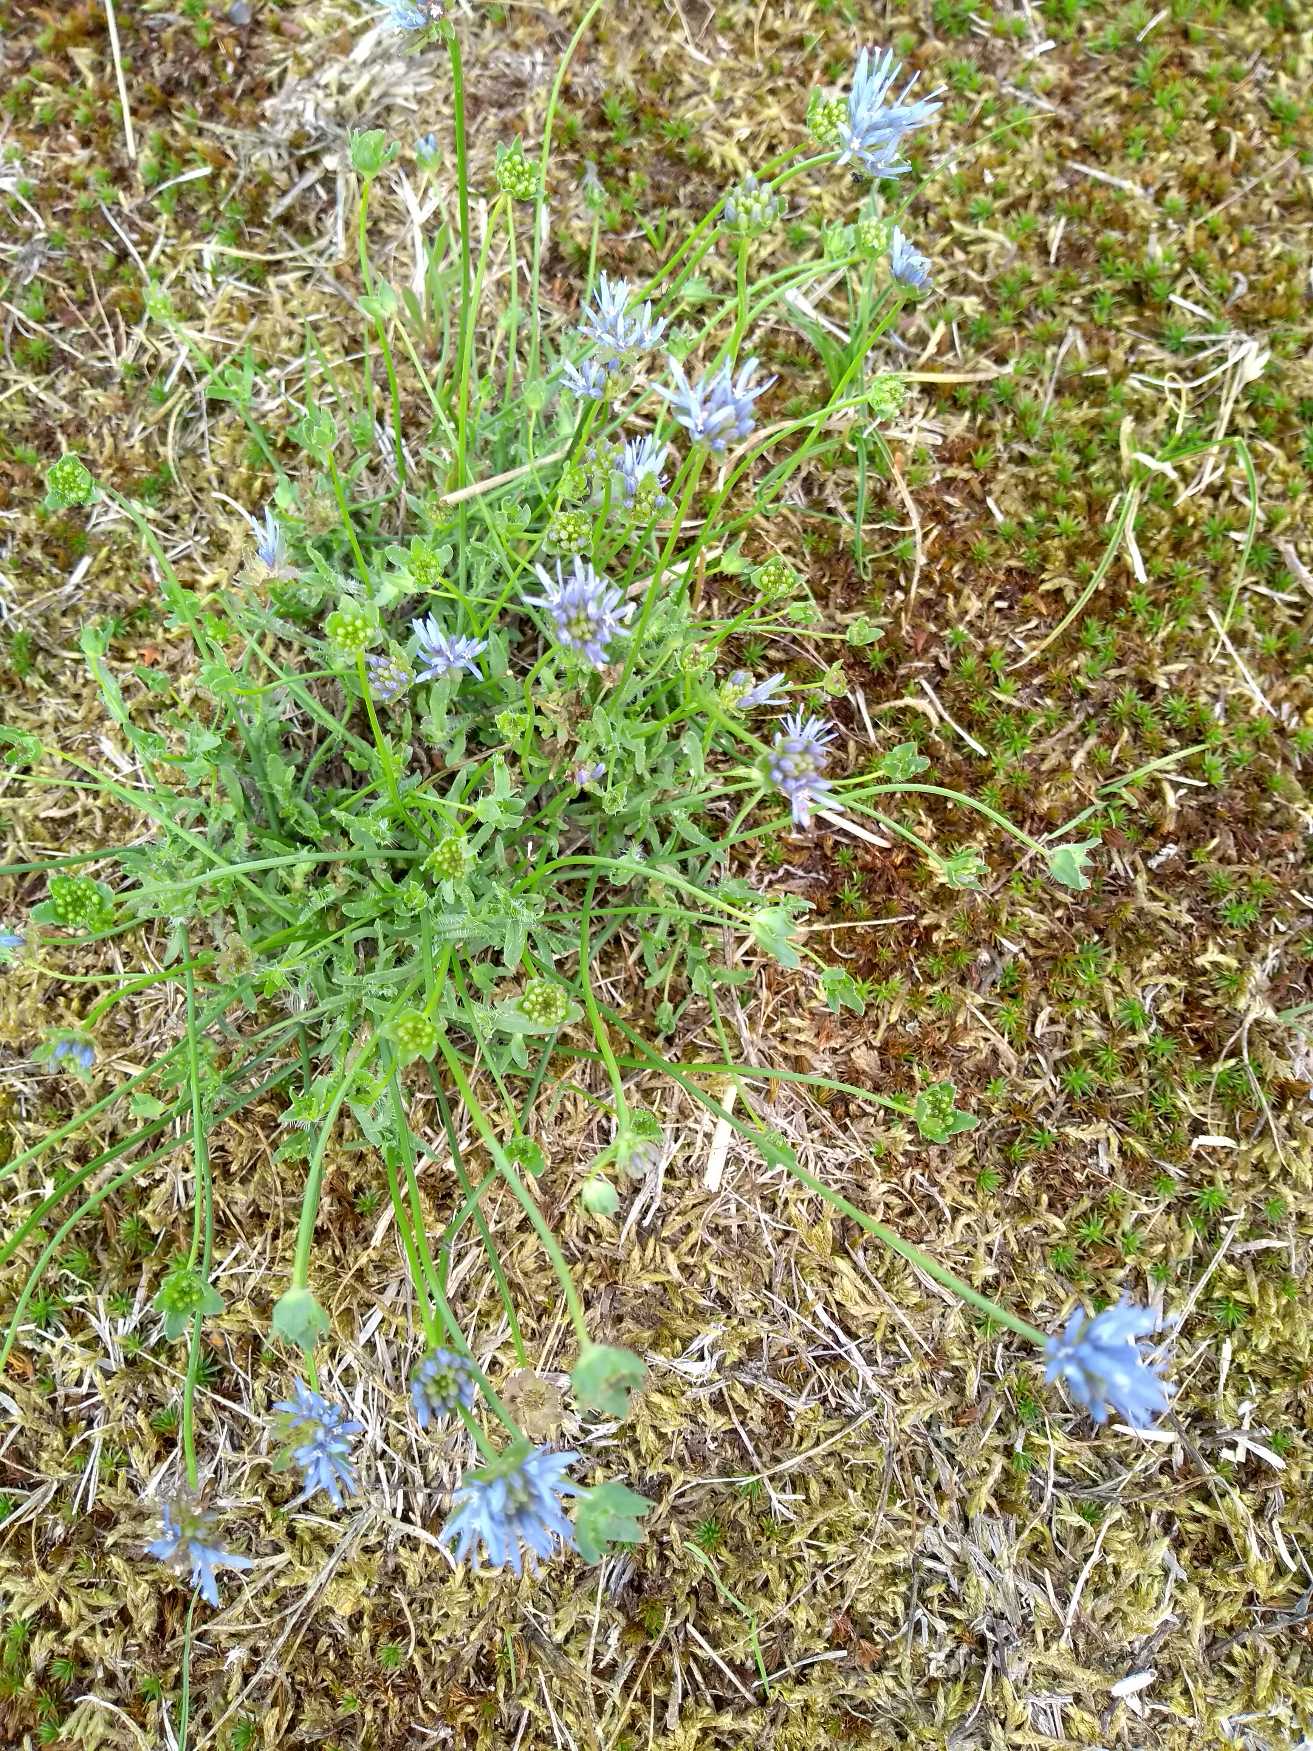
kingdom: Plantae
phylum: Tracheophyta
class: Magnoliopsida
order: Asterales
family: Campanulaceae
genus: Jasione
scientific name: Jasione montana
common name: Blåmunke
